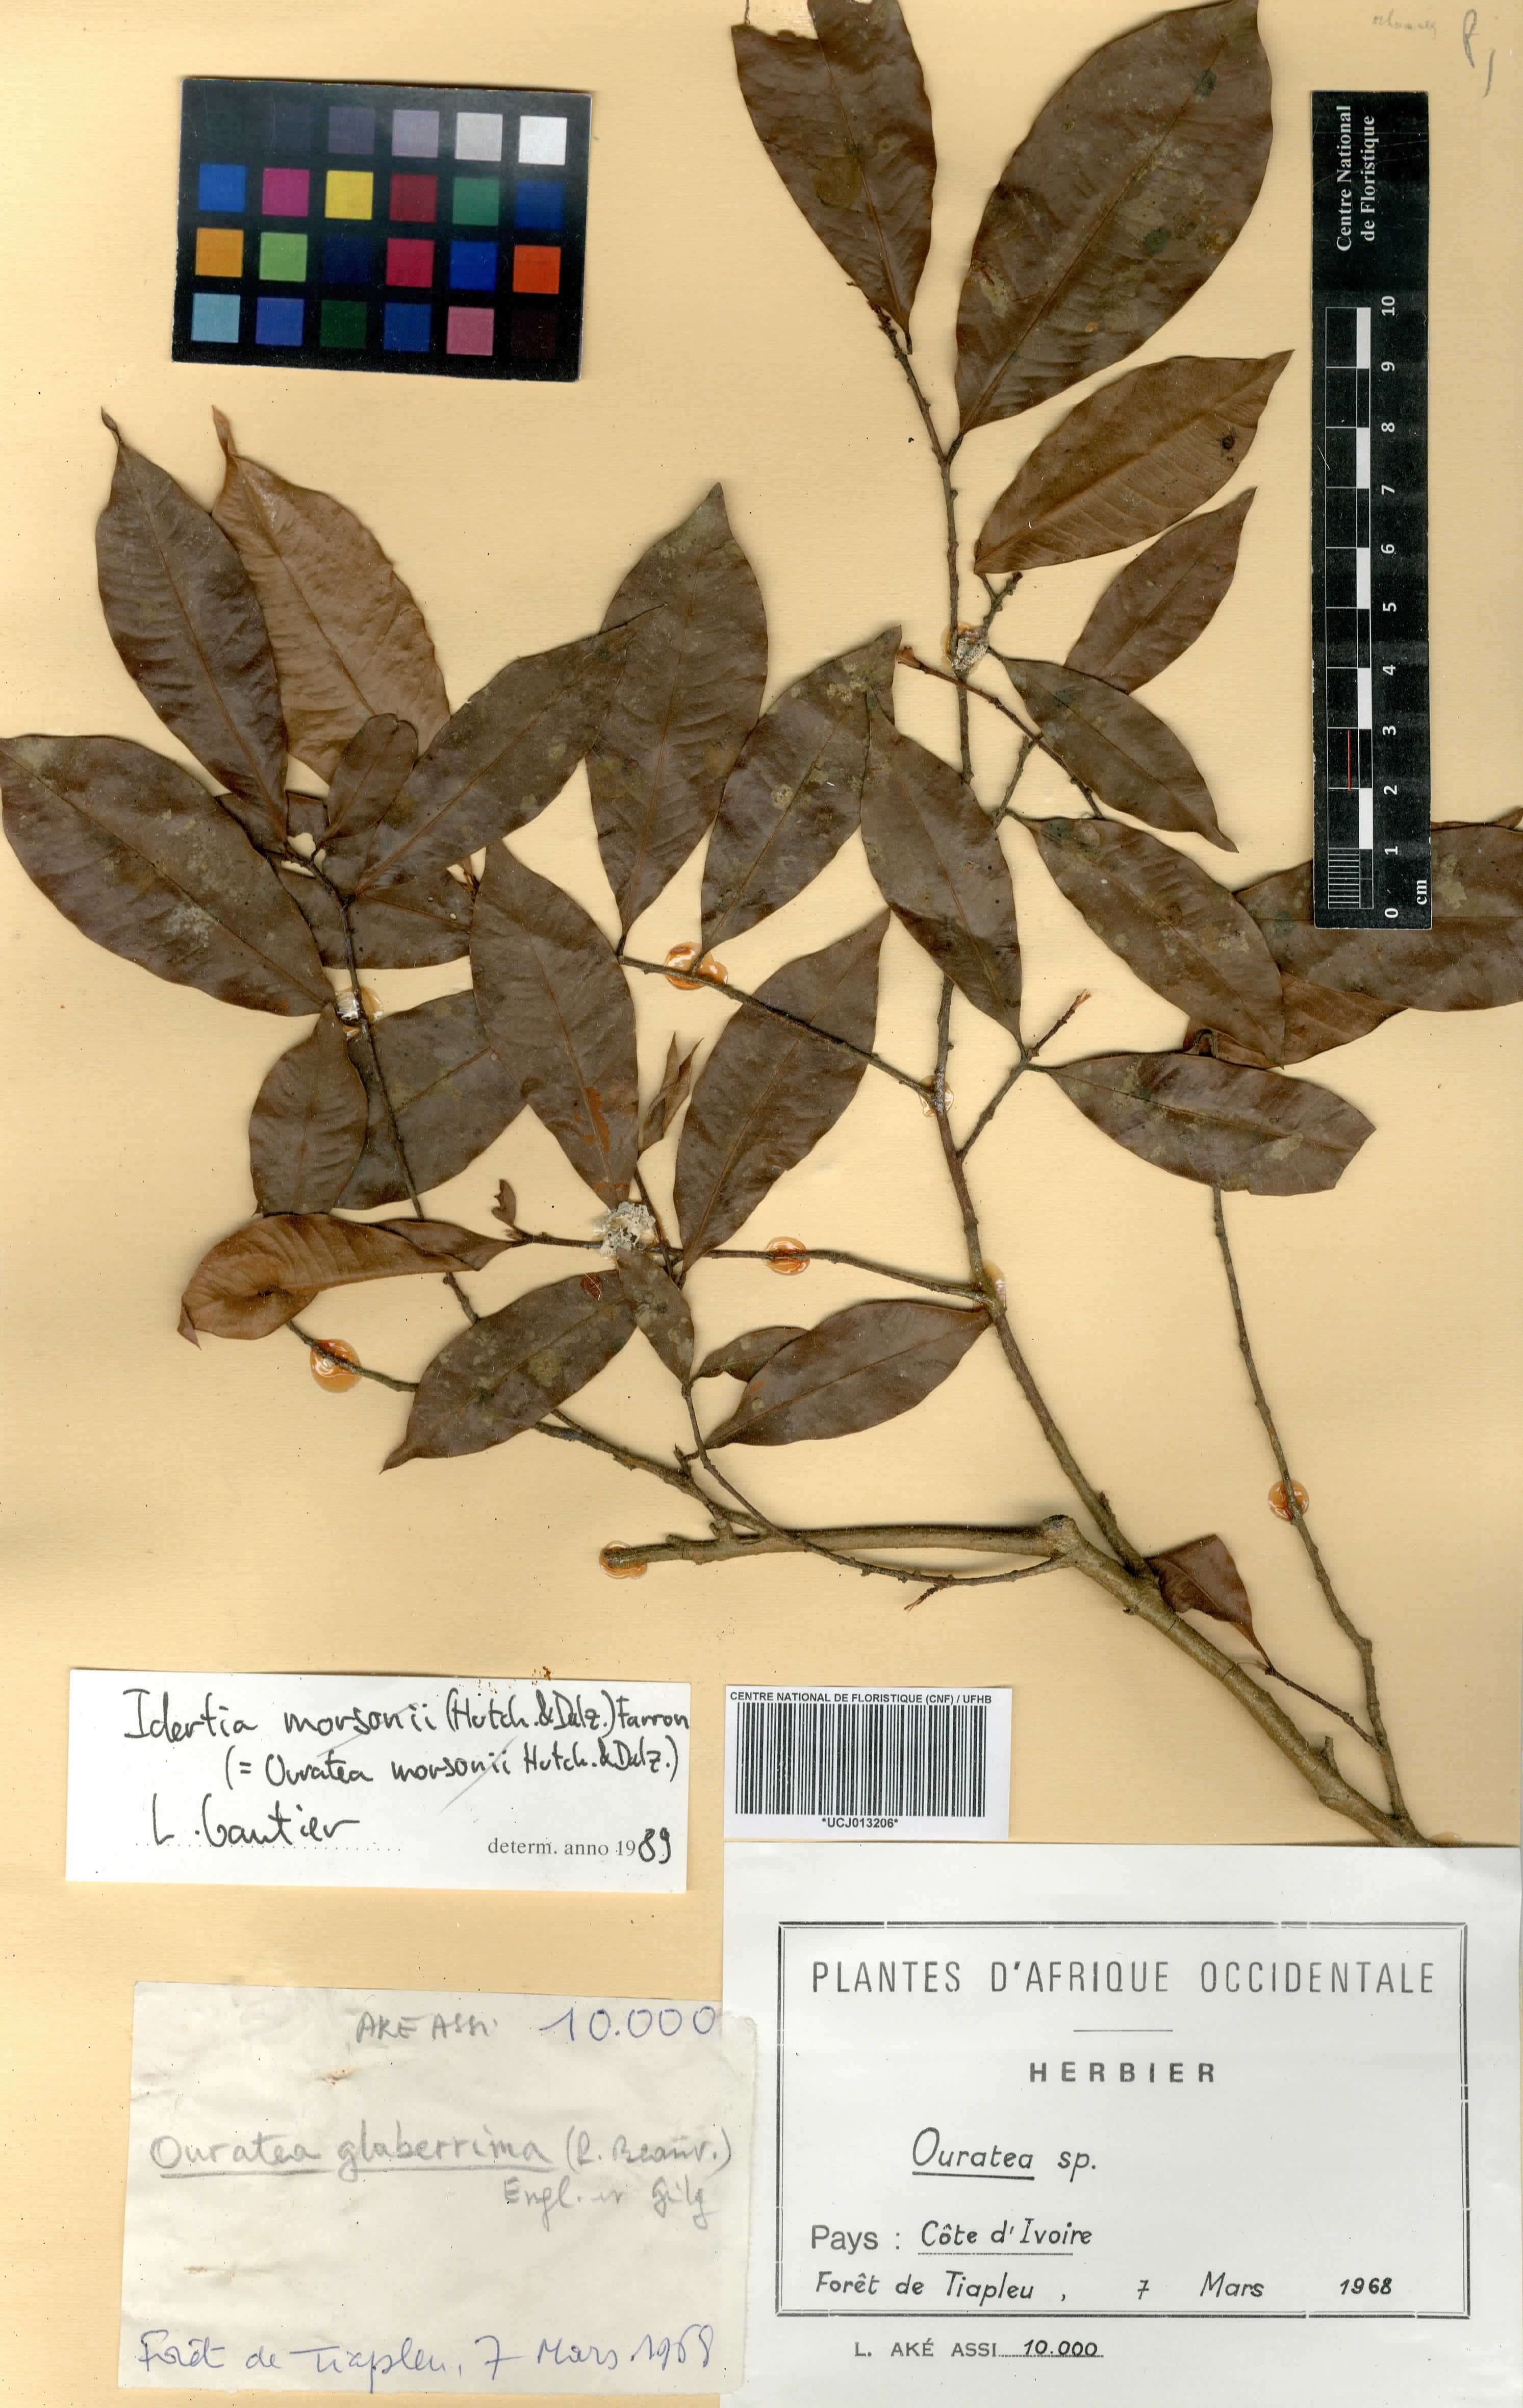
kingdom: Plantae
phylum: Tracheophyta
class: Magnoliopsida
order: Malpighiales
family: Ochnaceae
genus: Ouratea
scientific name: Ouratea
